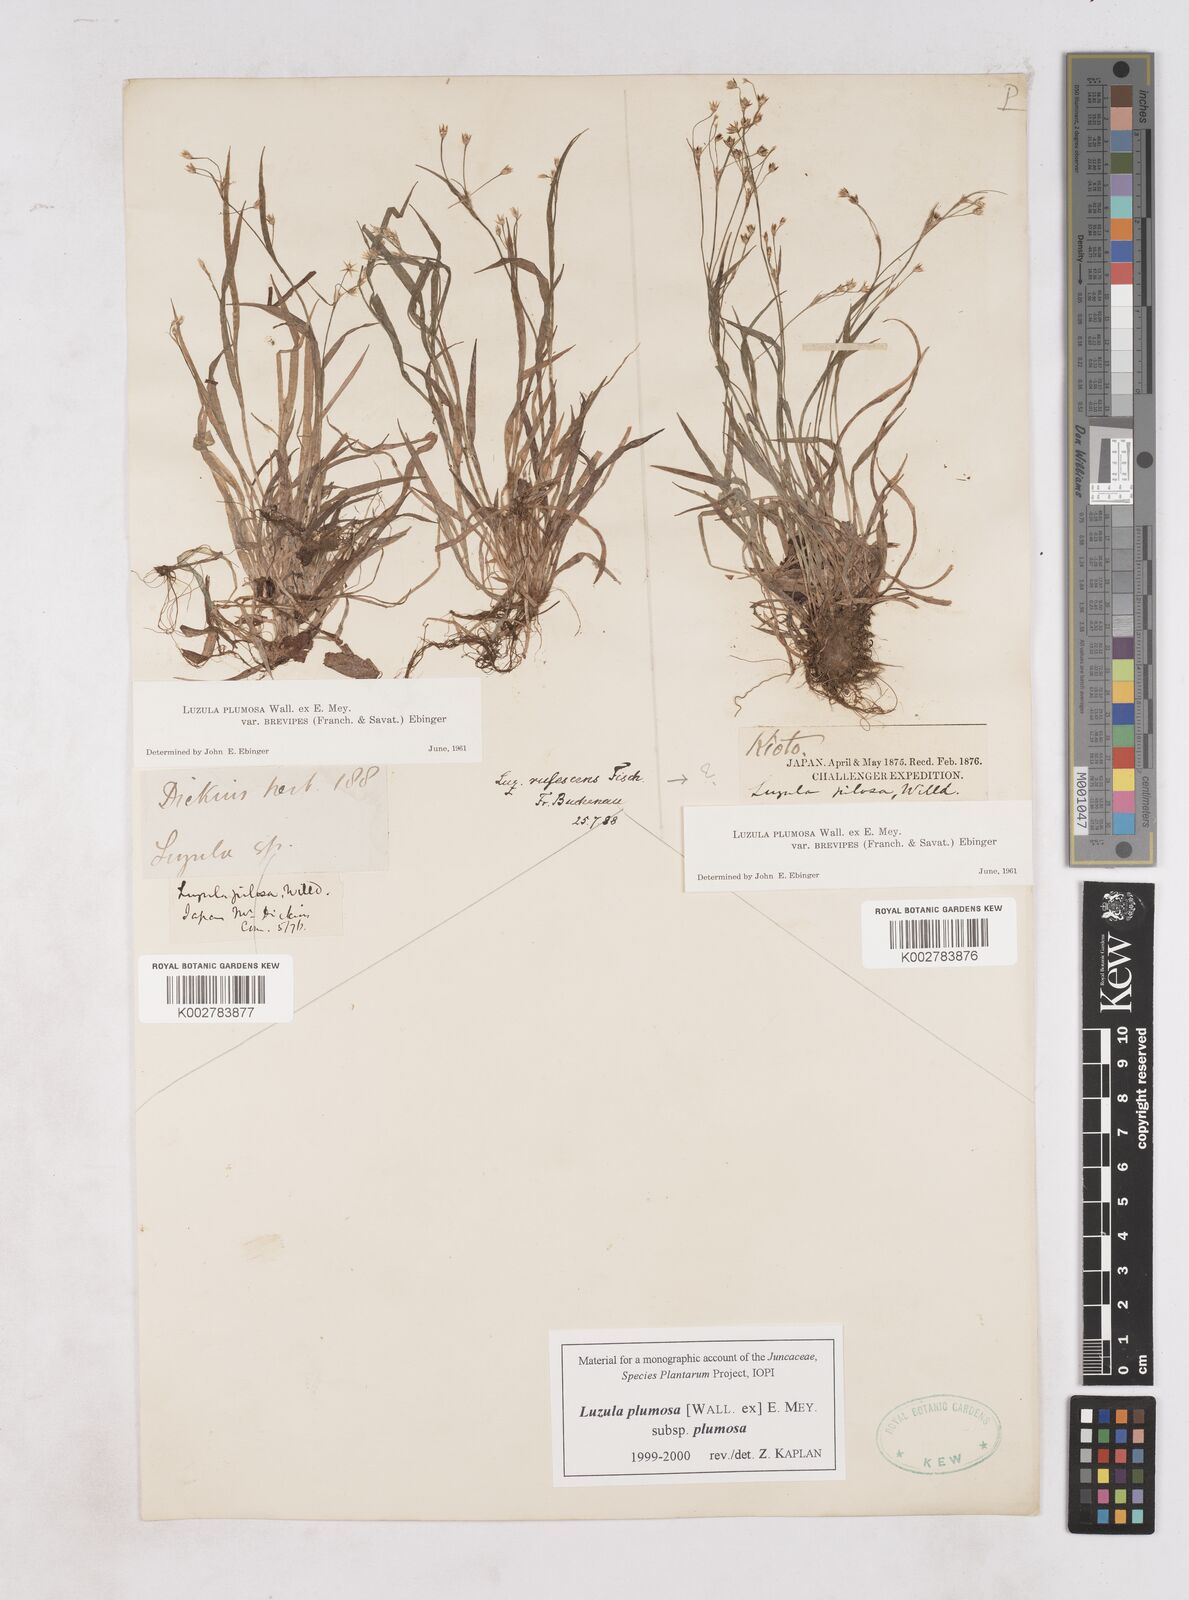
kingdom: Plantae
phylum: Tracheophyta
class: Liliopsida
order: Poales
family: Juncaceae
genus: Luzula
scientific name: Luzula plumosa
